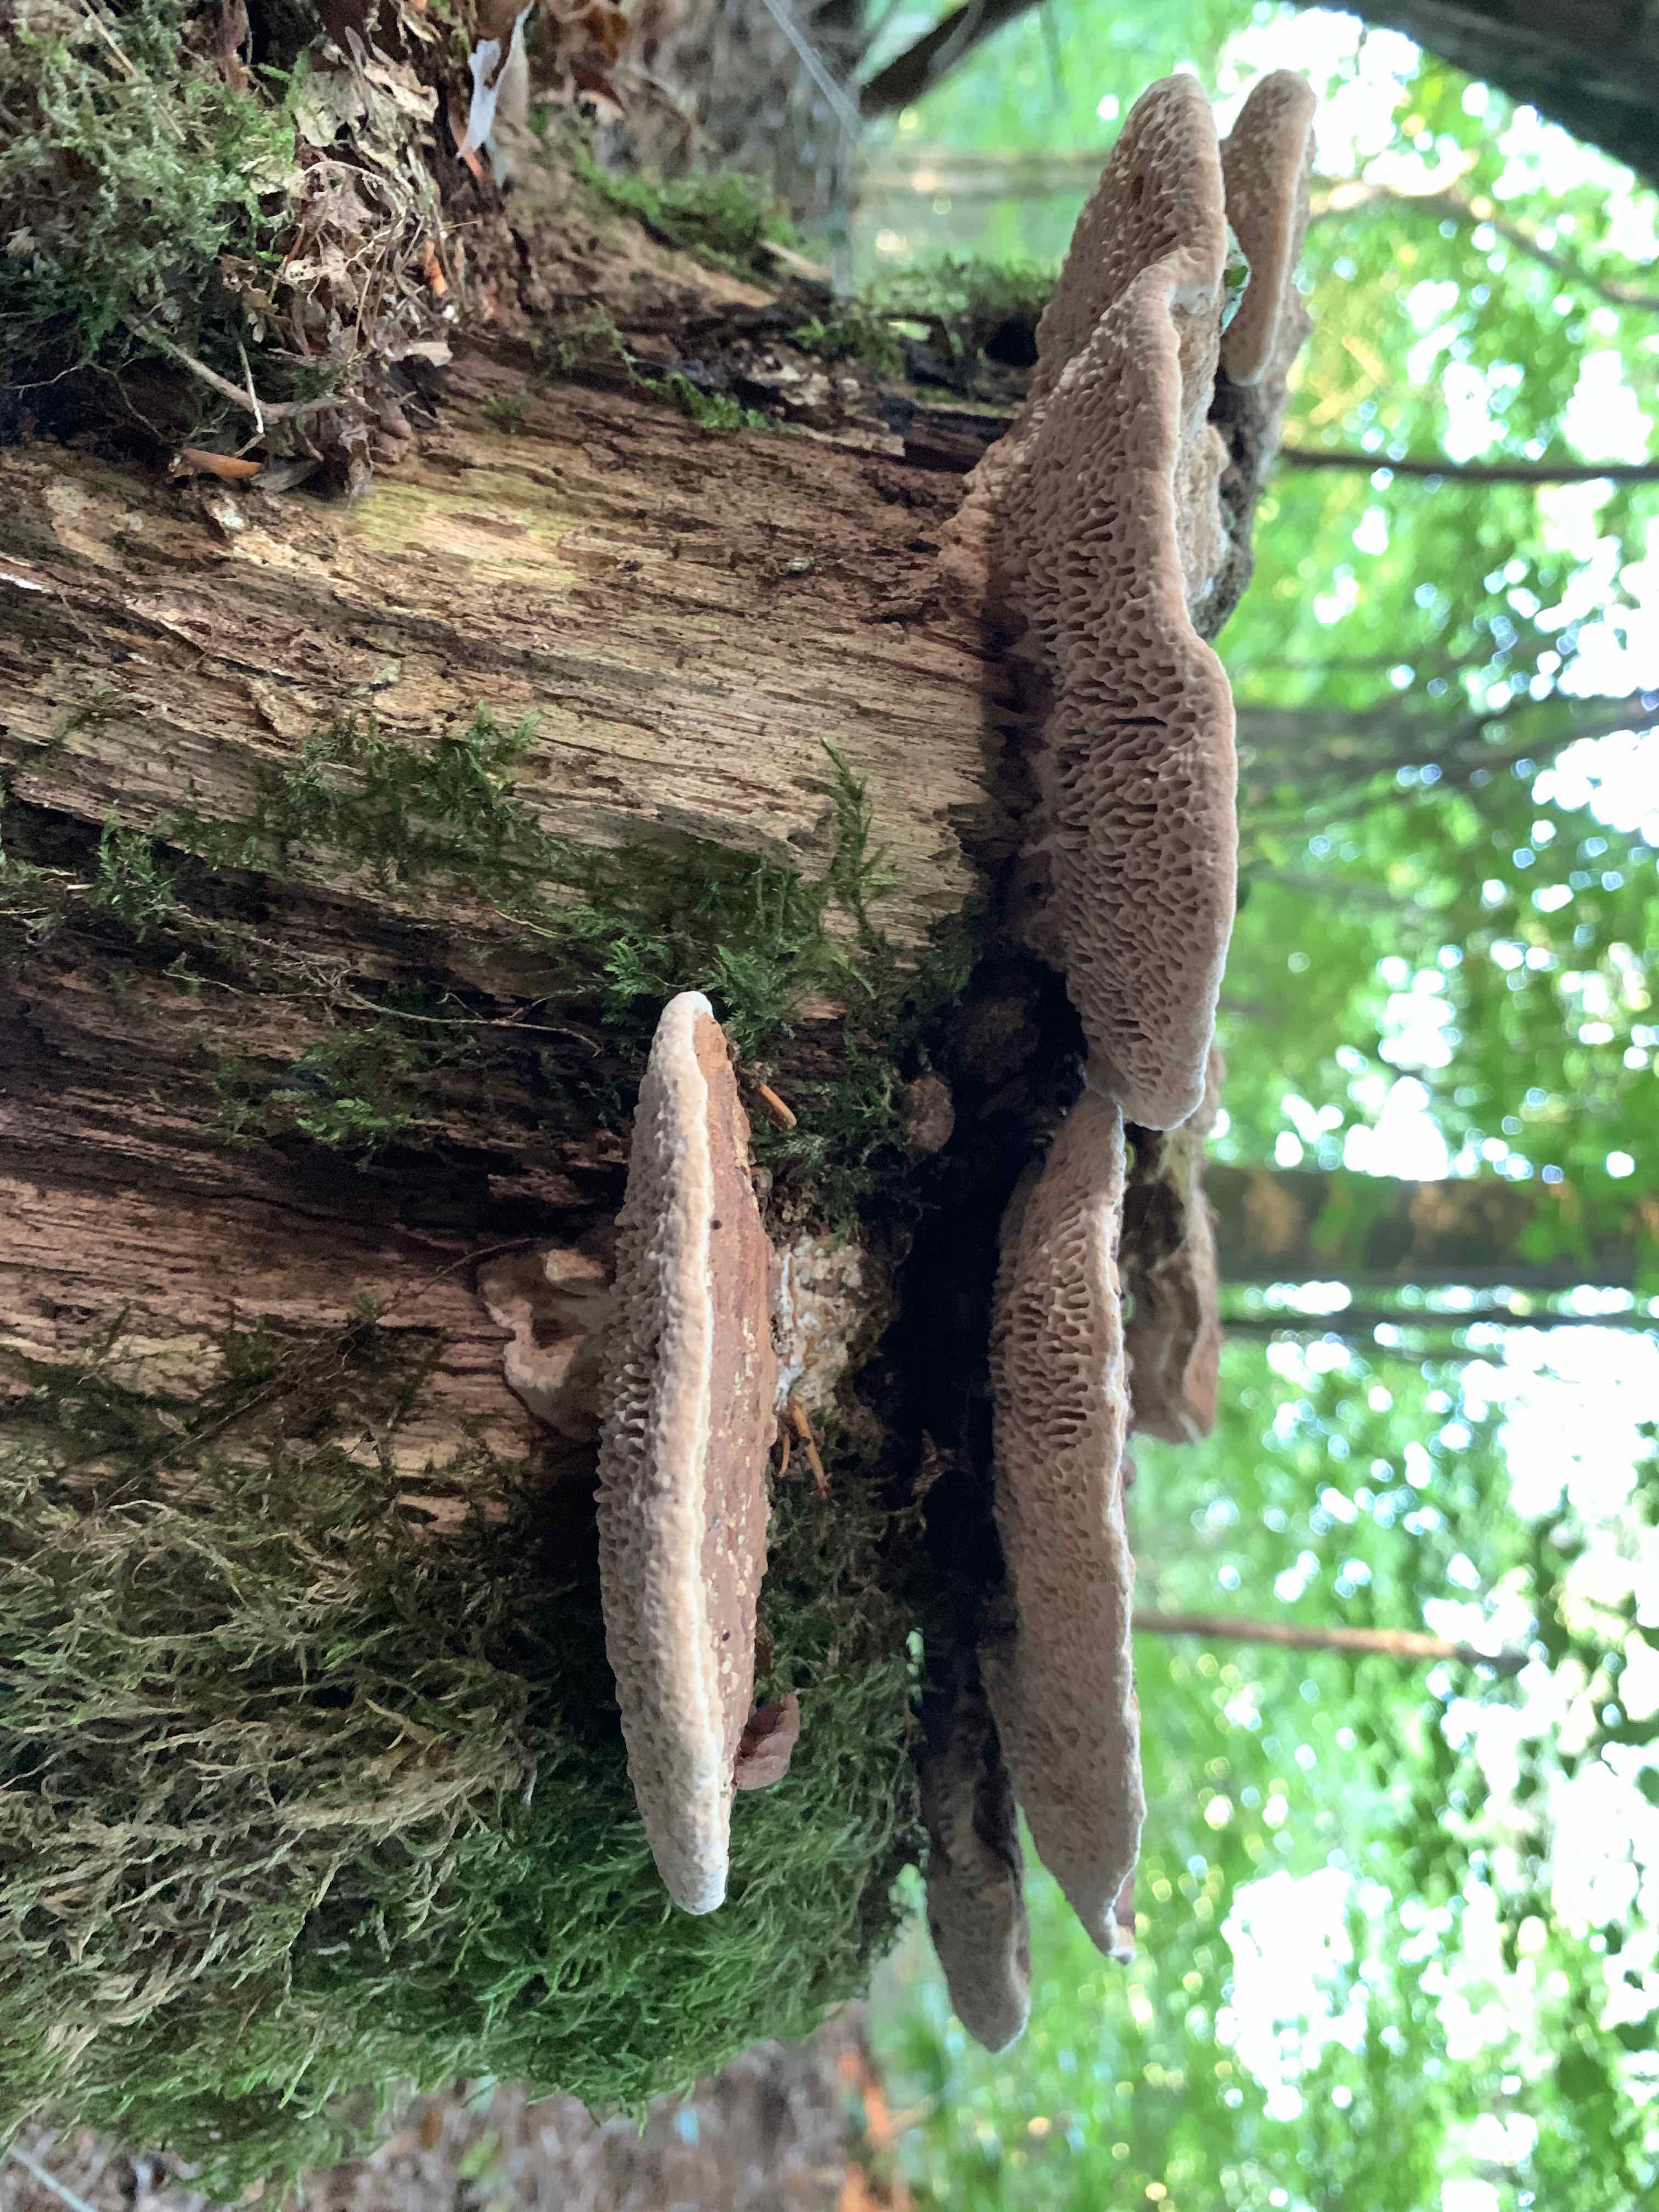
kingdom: Fungi
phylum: Basidiomycota
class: Agaricomycetes
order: Polyporales
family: Fomitopsidaceae
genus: Daedalea
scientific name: Daedalea quercina
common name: ege-labyrintsvamp
